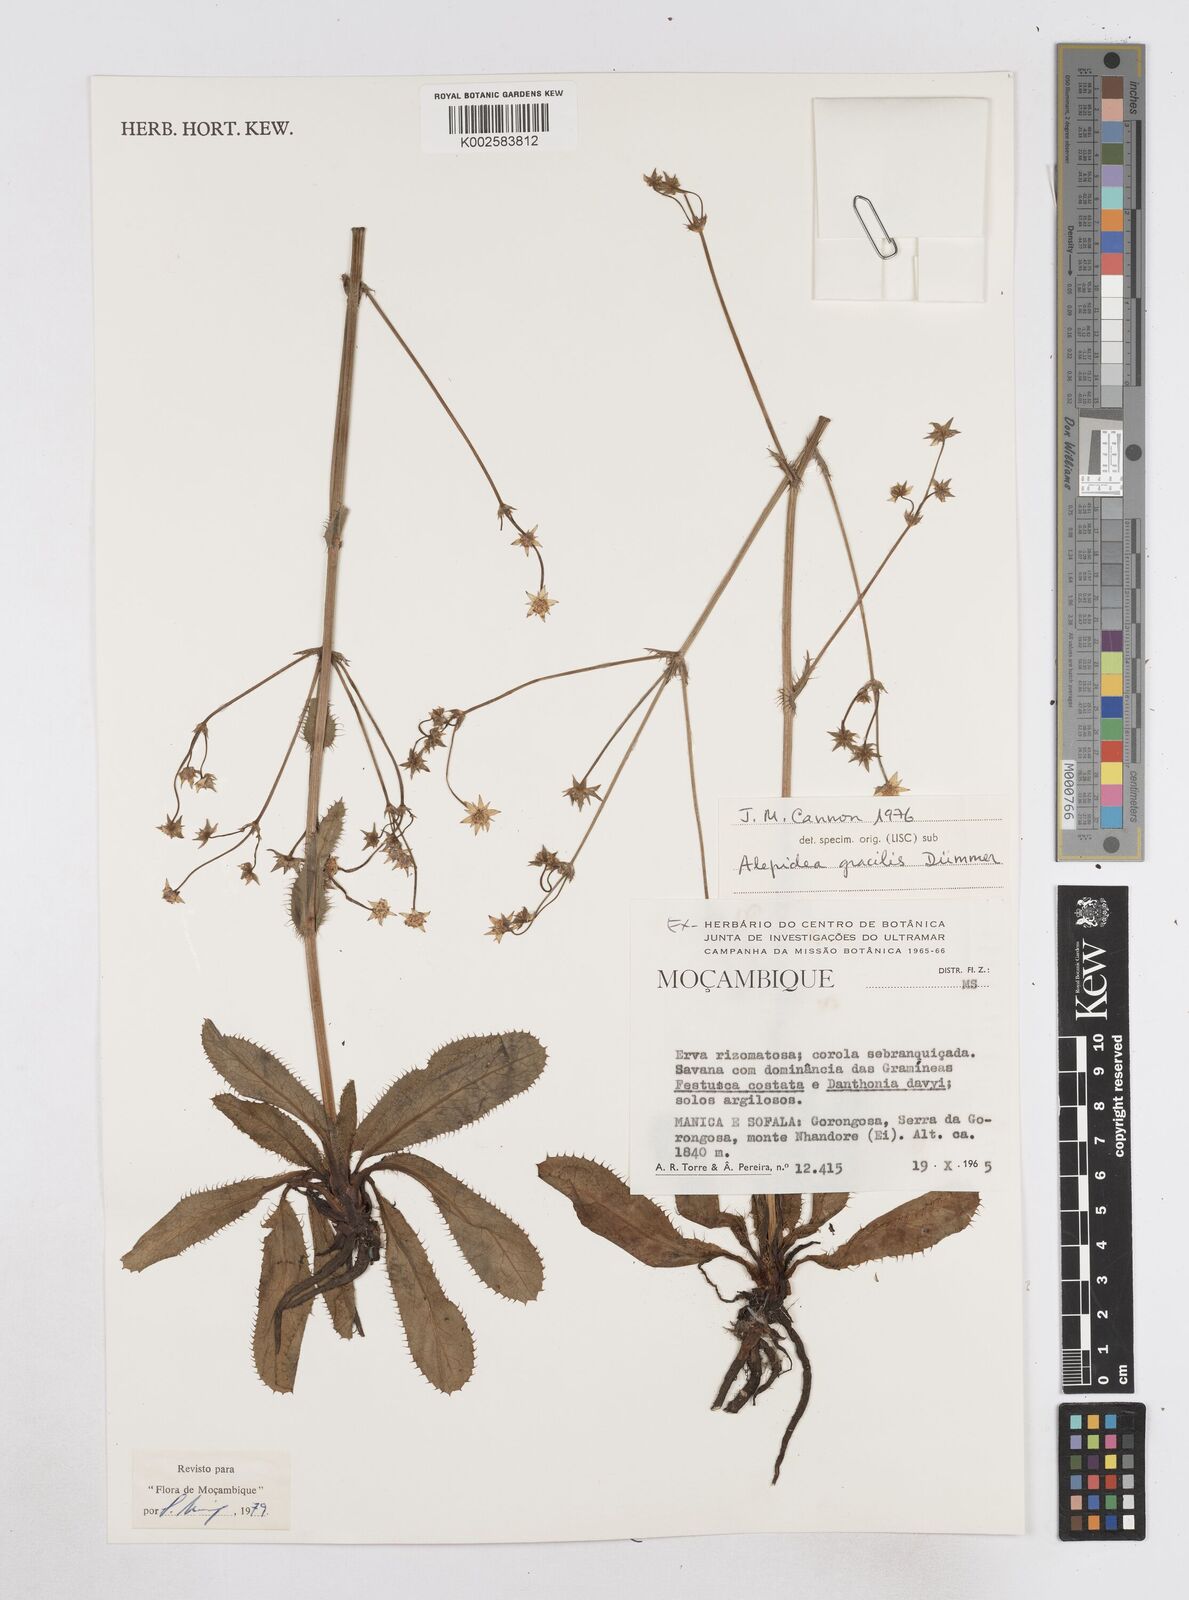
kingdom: Plantae
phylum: Tracheophyta
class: Magnoliopsida
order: Apiales
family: Apiaceae
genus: Alepidea
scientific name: Alepidea peduncularis
